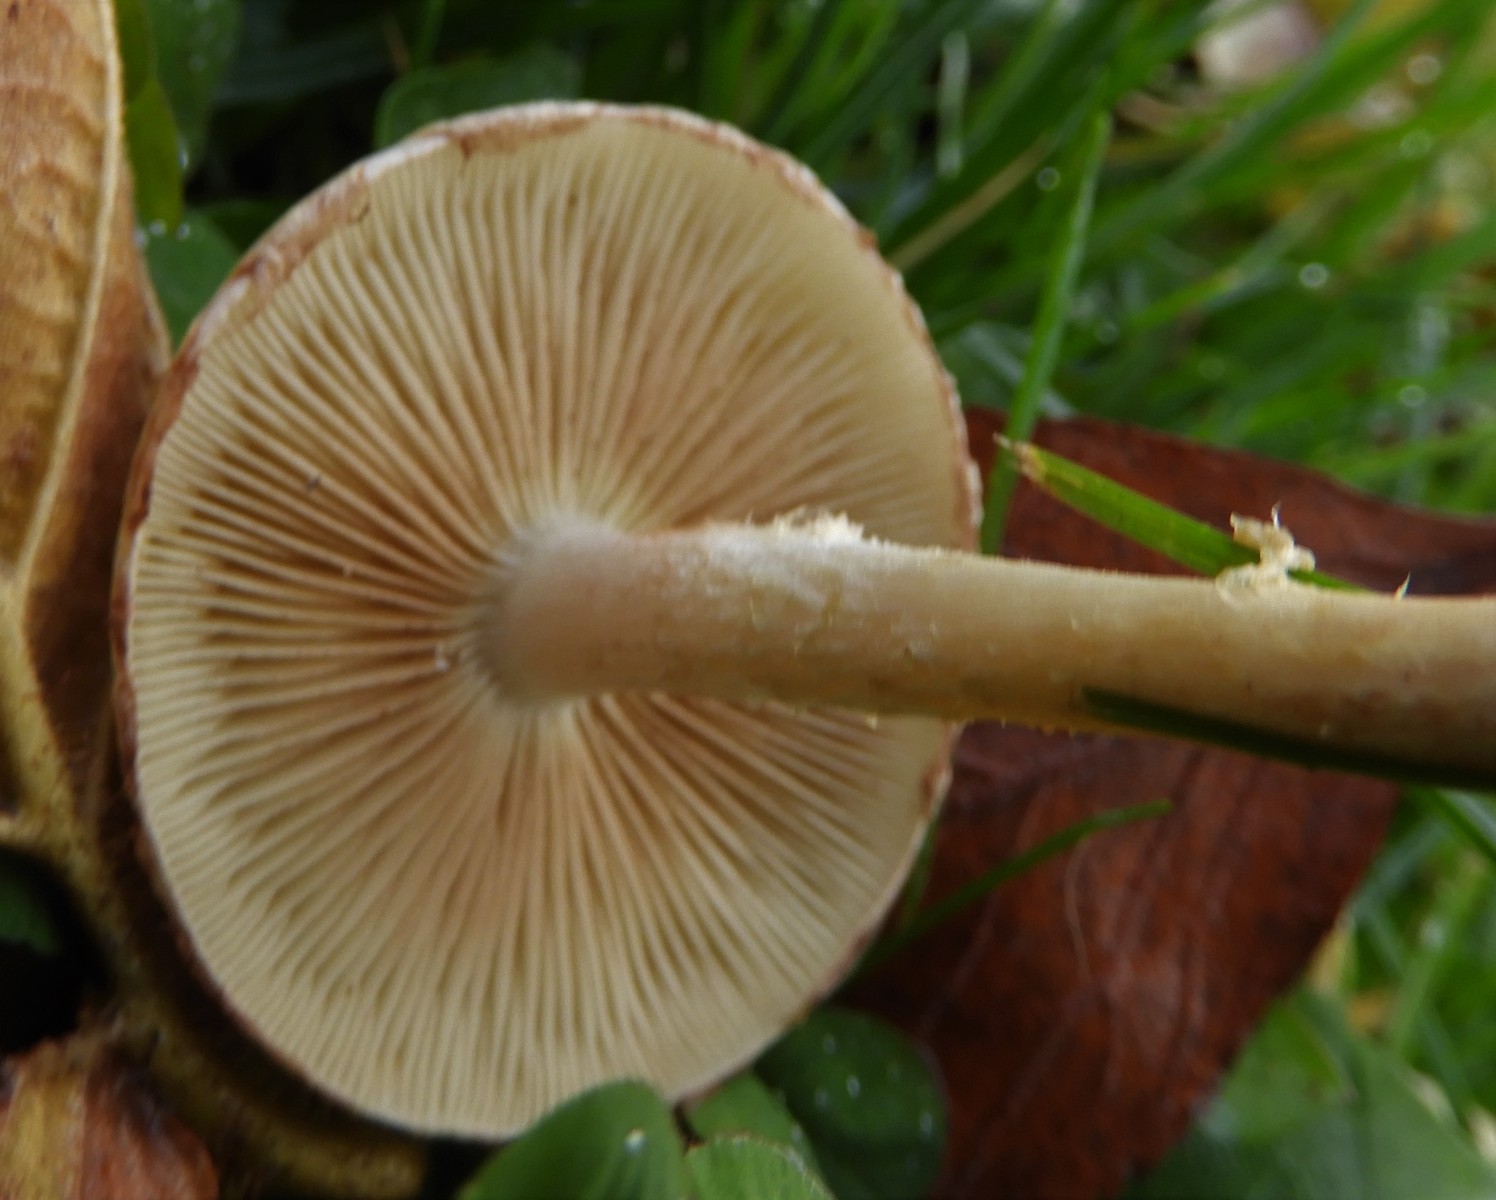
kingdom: Fungi
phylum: Basidiomycota
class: Agaricomycetes
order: Agaricales
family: Strophariaceae
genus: Pholiota
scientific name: Pholiota gummosa
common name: grøngul skælhat
